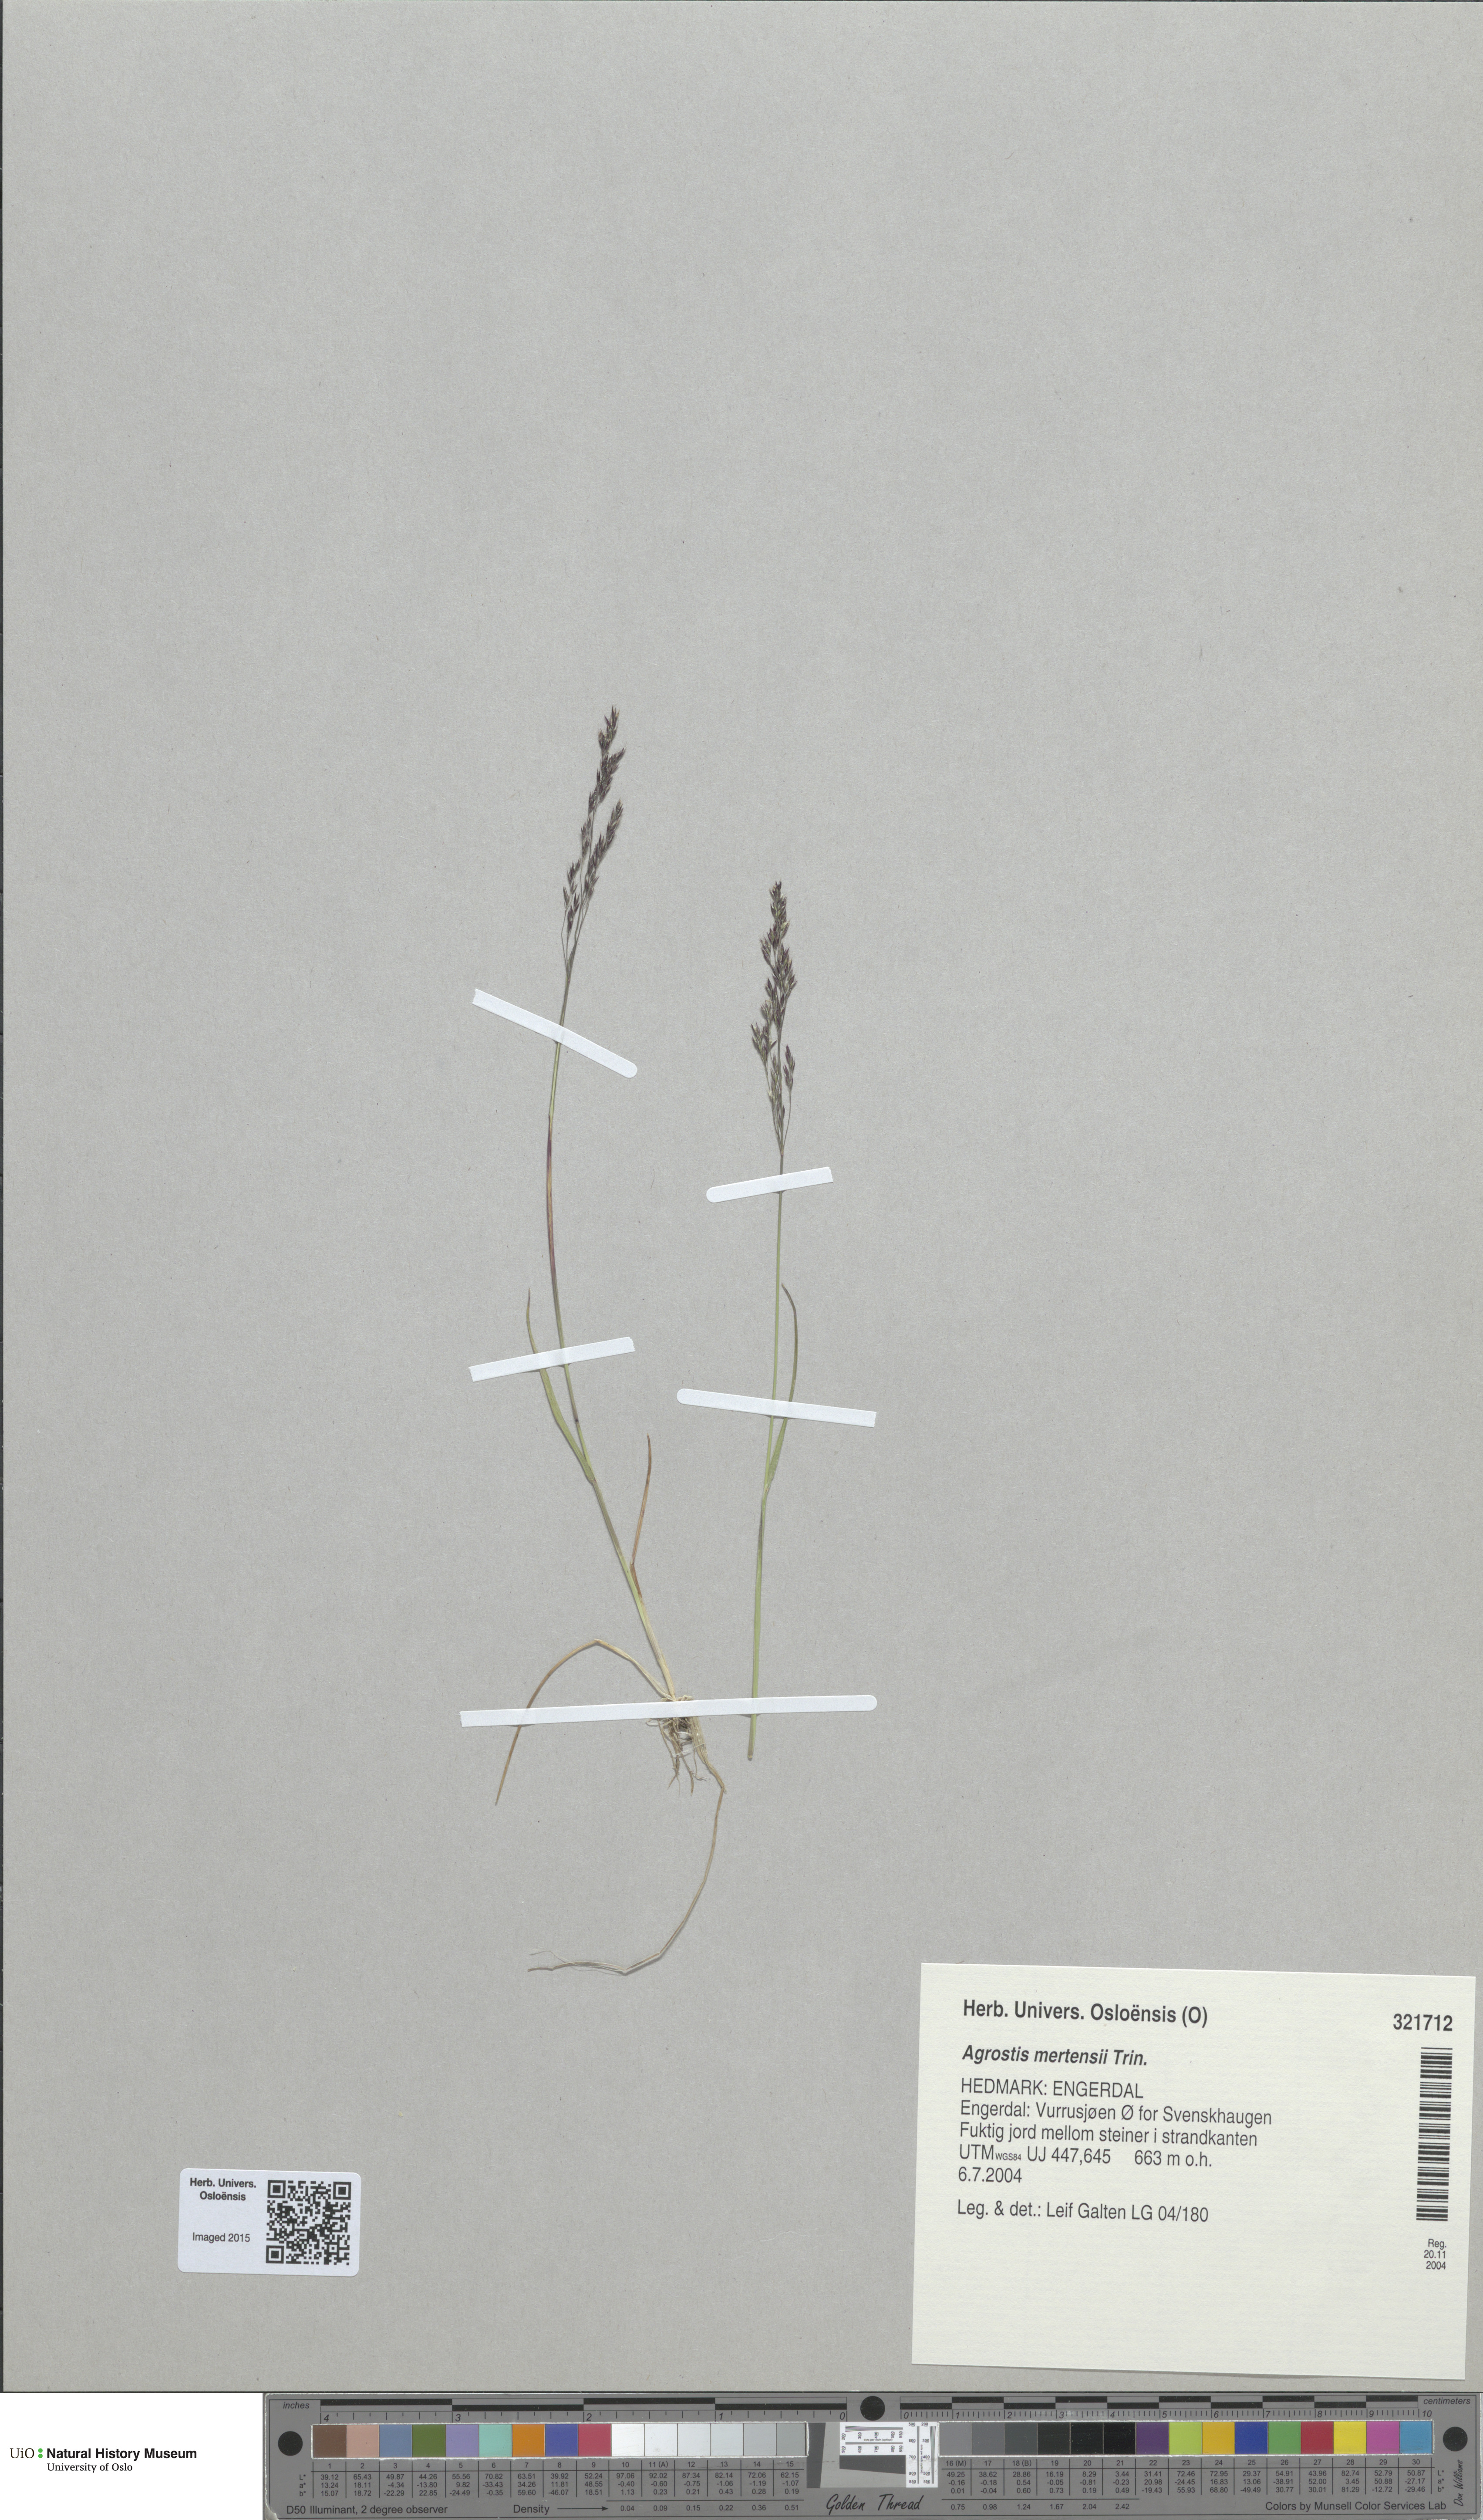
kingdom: Plantae
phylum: Tracheophyta
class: Liliopsida
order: Poales
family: Poaceae
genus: Agrostis
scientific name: Agrostis mertensii
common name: Northern bent
